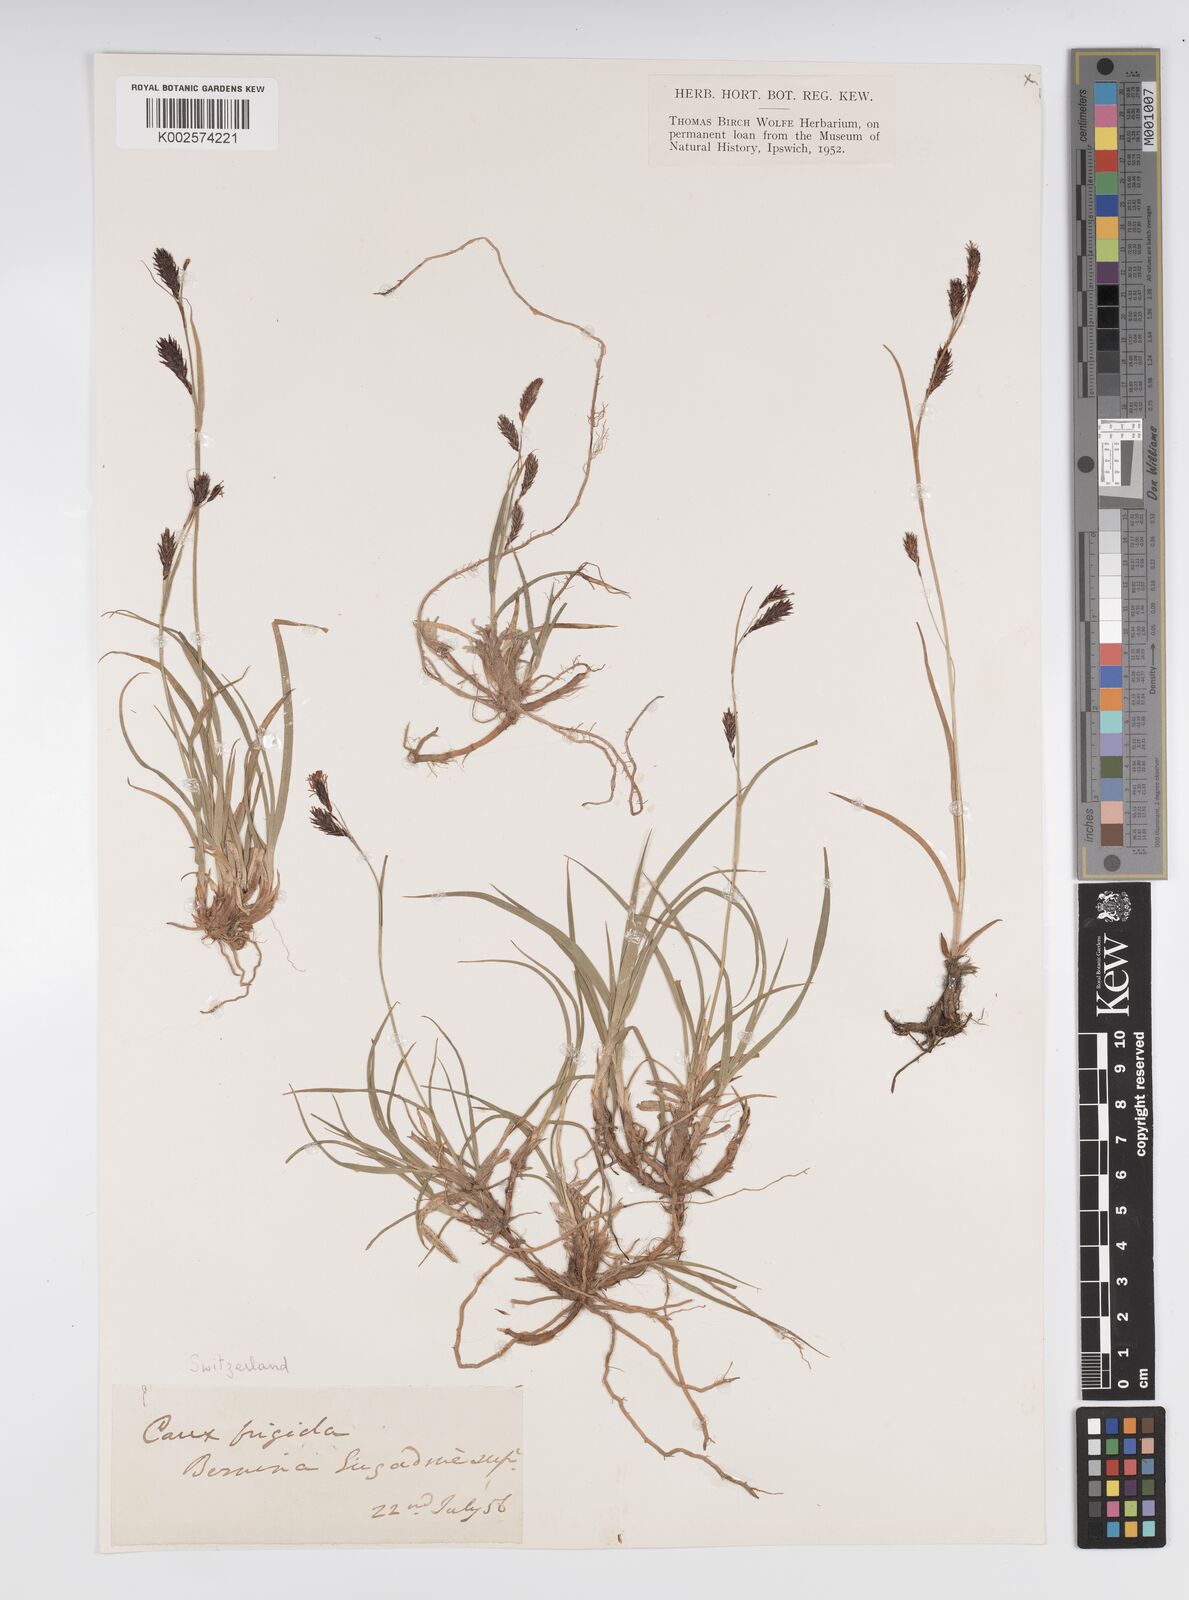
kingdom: Plantae
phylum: Tracheophyta
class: Liliopsida
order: Poales
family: Cyperaceae
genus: Carex
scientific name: Carex frigida
